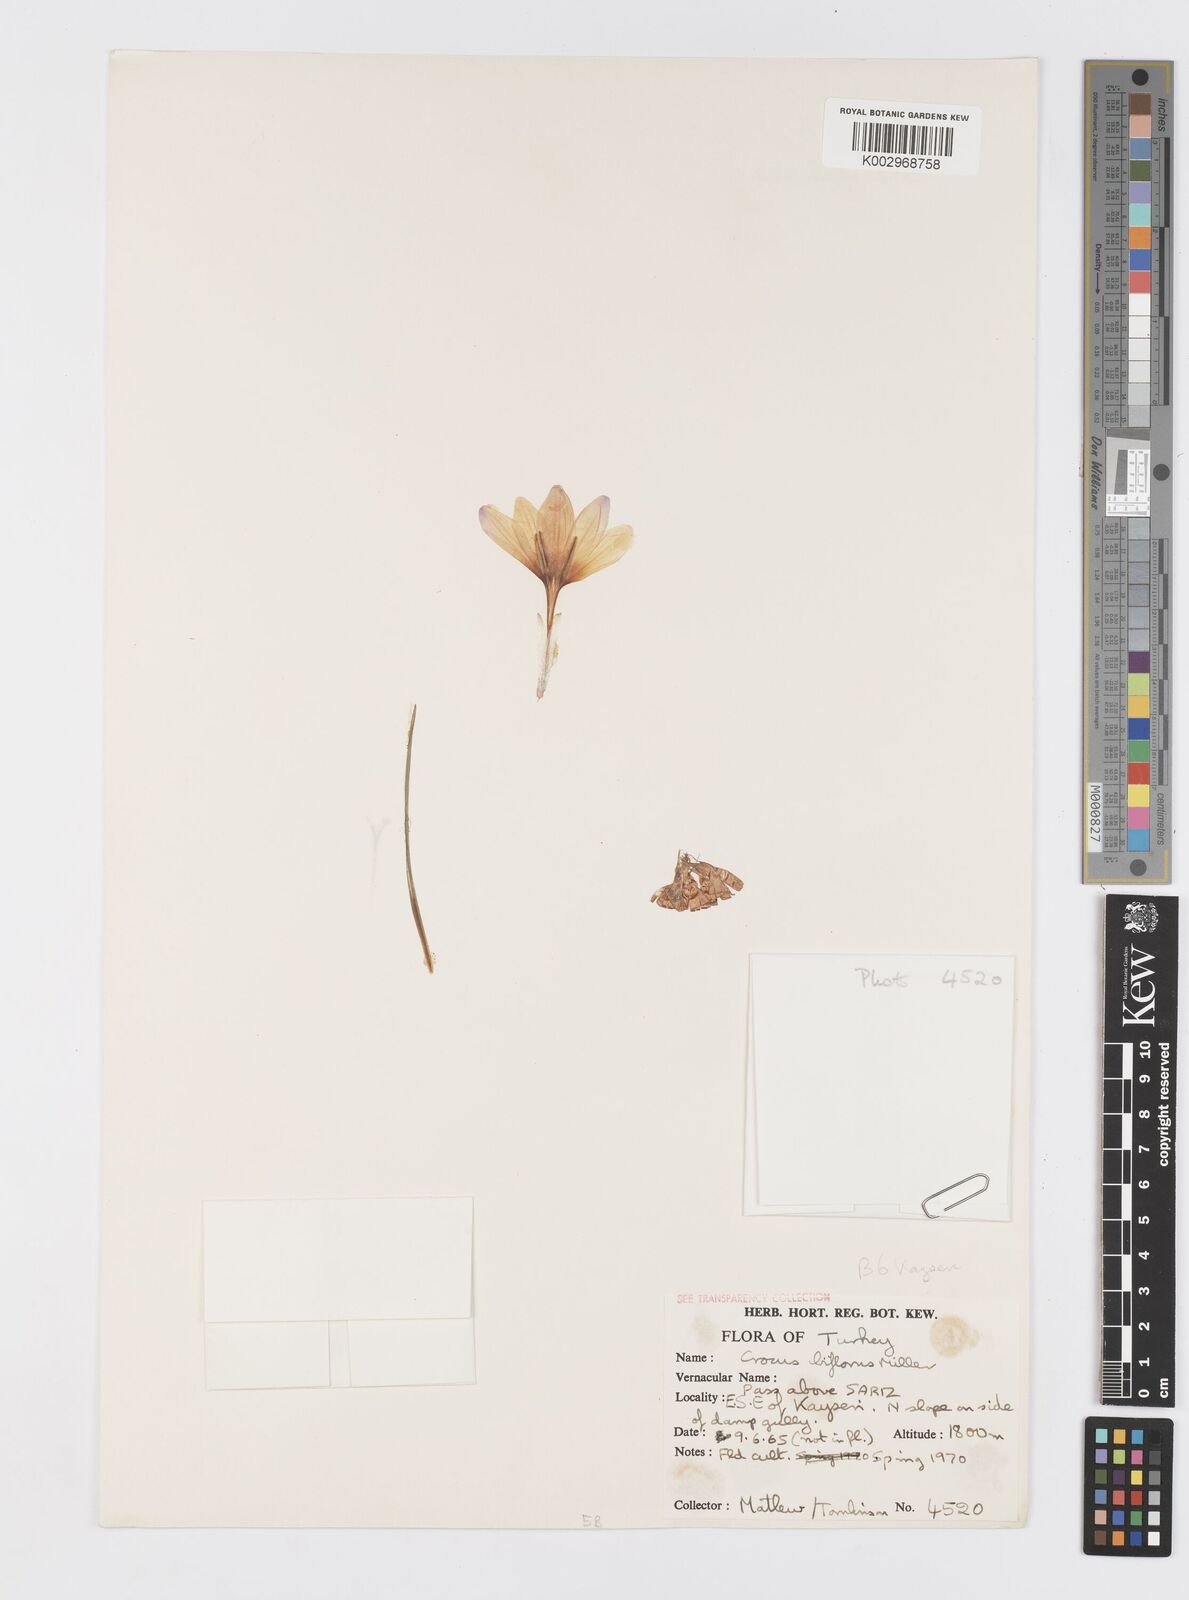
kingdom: Plantae
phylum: Tracheophyta
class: Liliopsida
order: Asparagales
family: Iridaceae
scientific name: Iridaceae
